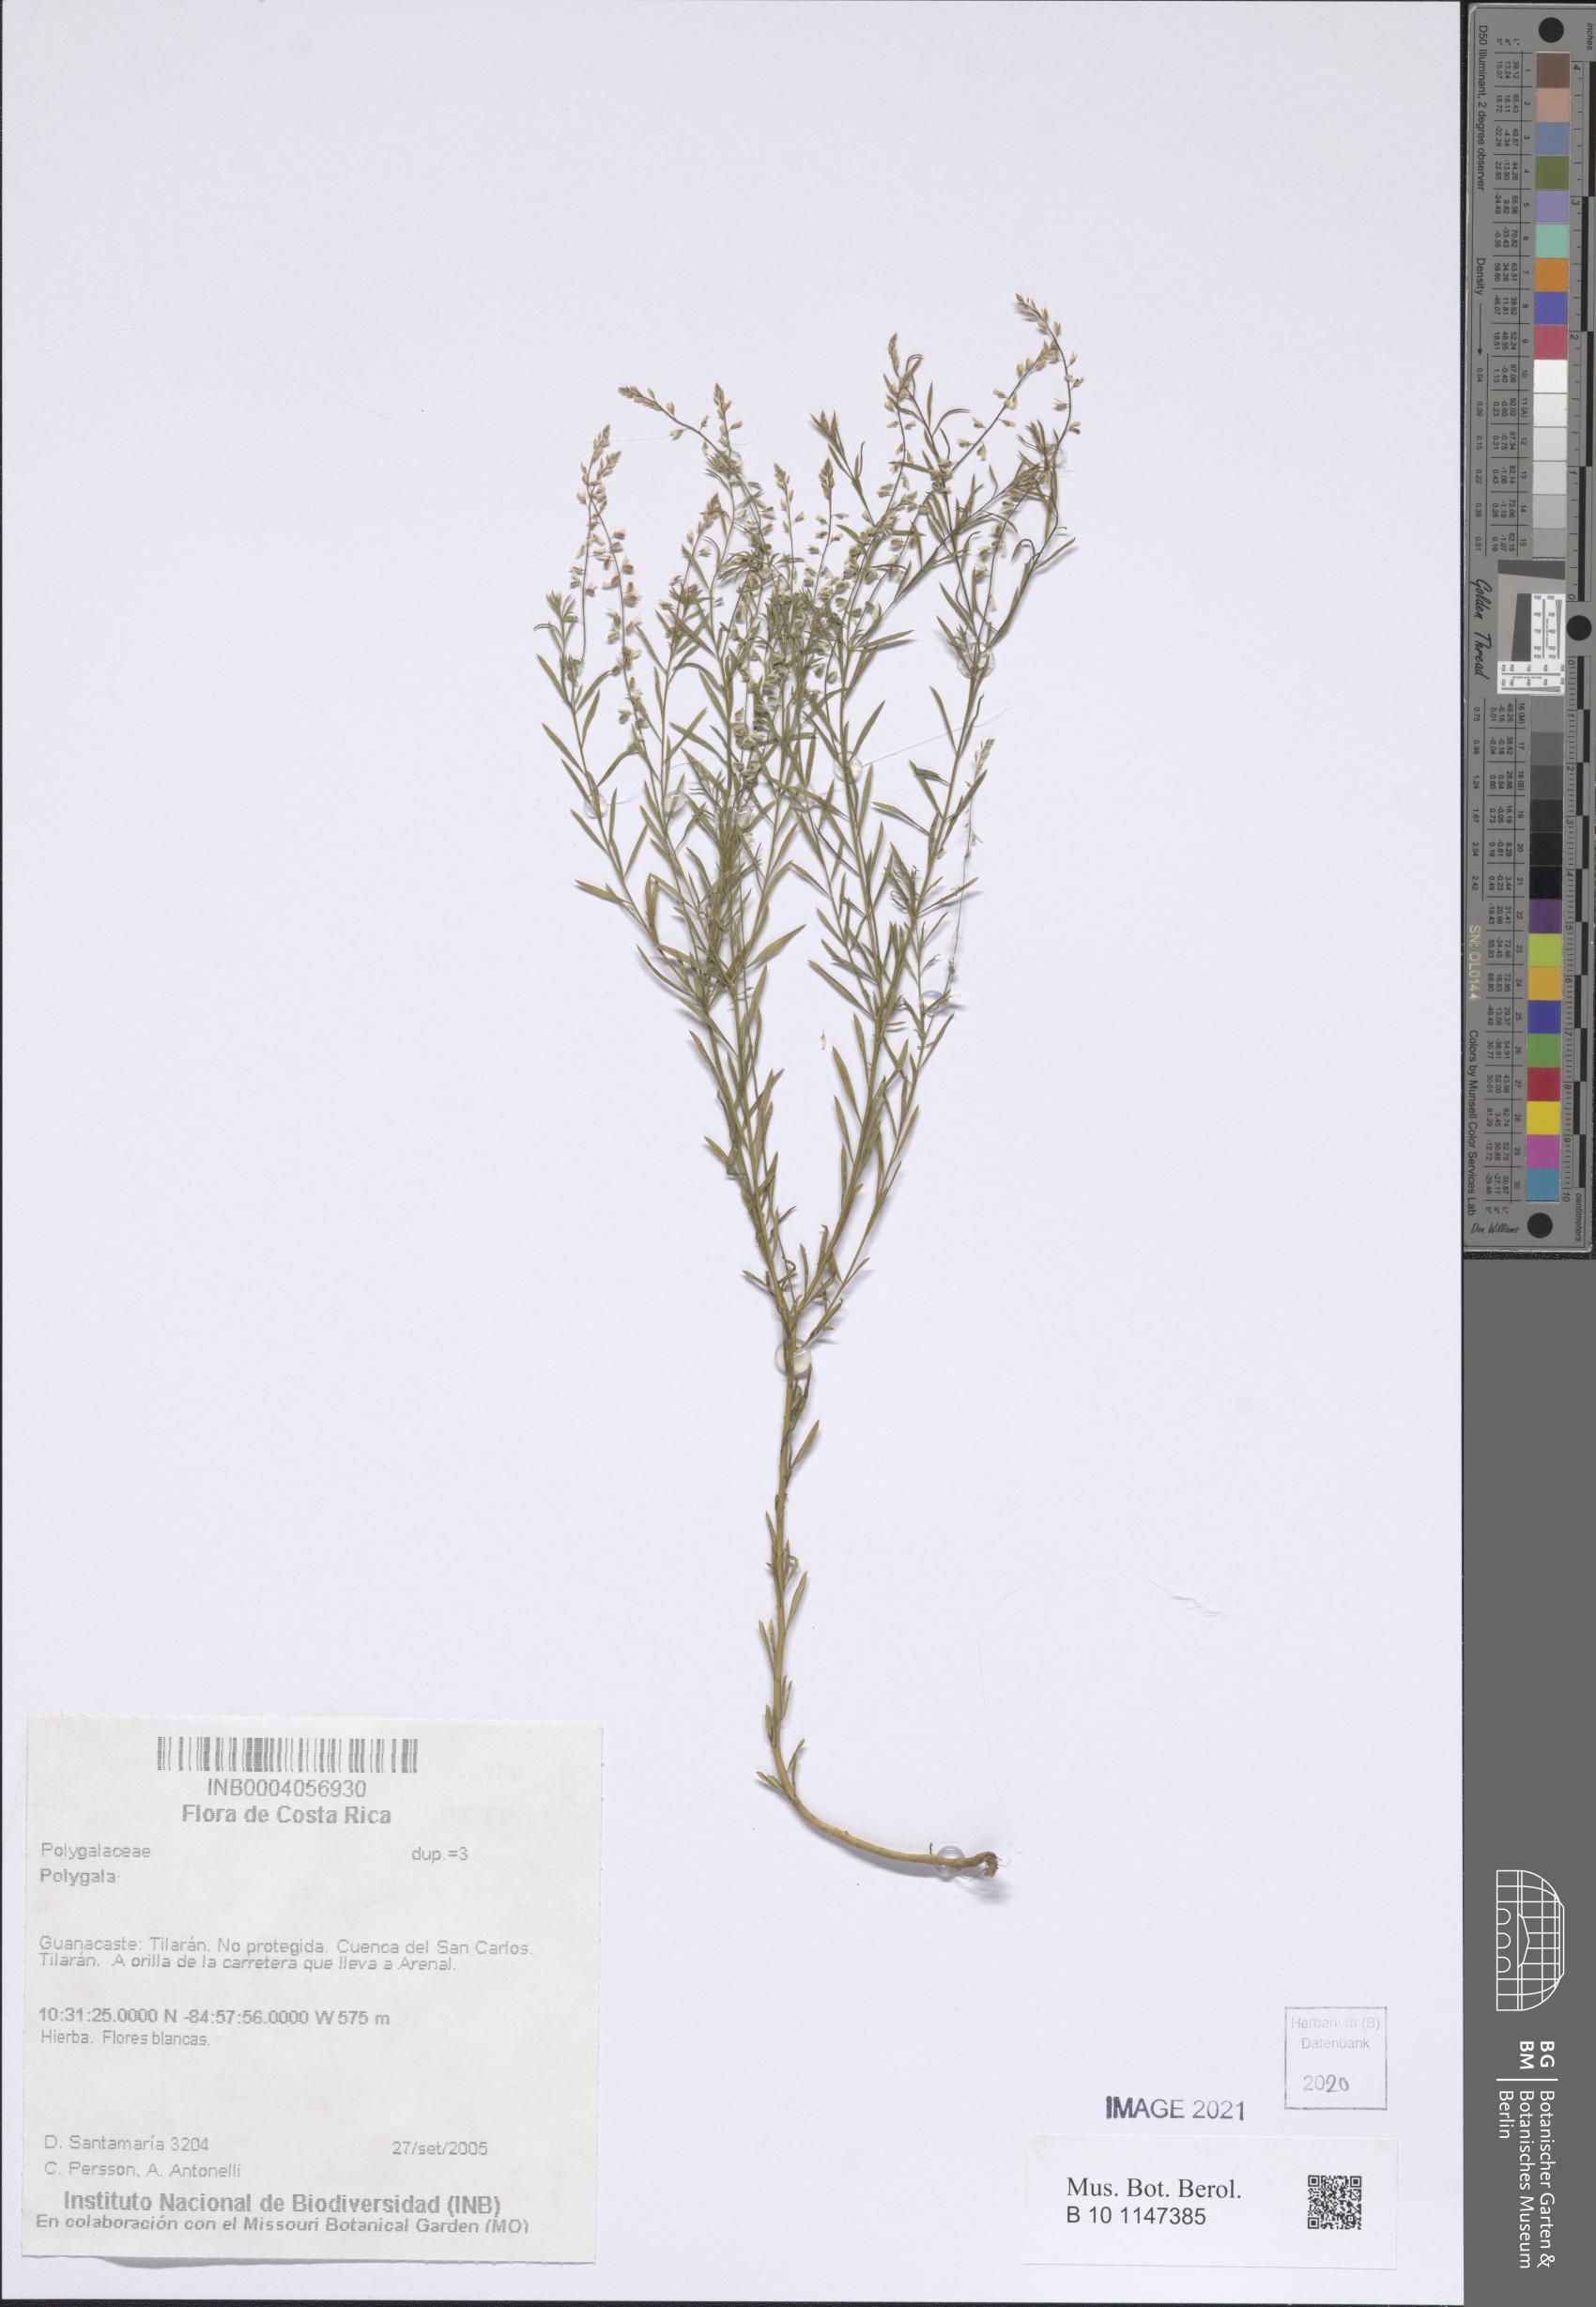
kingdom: Plantae
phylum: Tracheophyta
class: Magnoliopsida
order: Fabales
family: Polygalaceae
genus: Polygala
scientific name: Polygala
